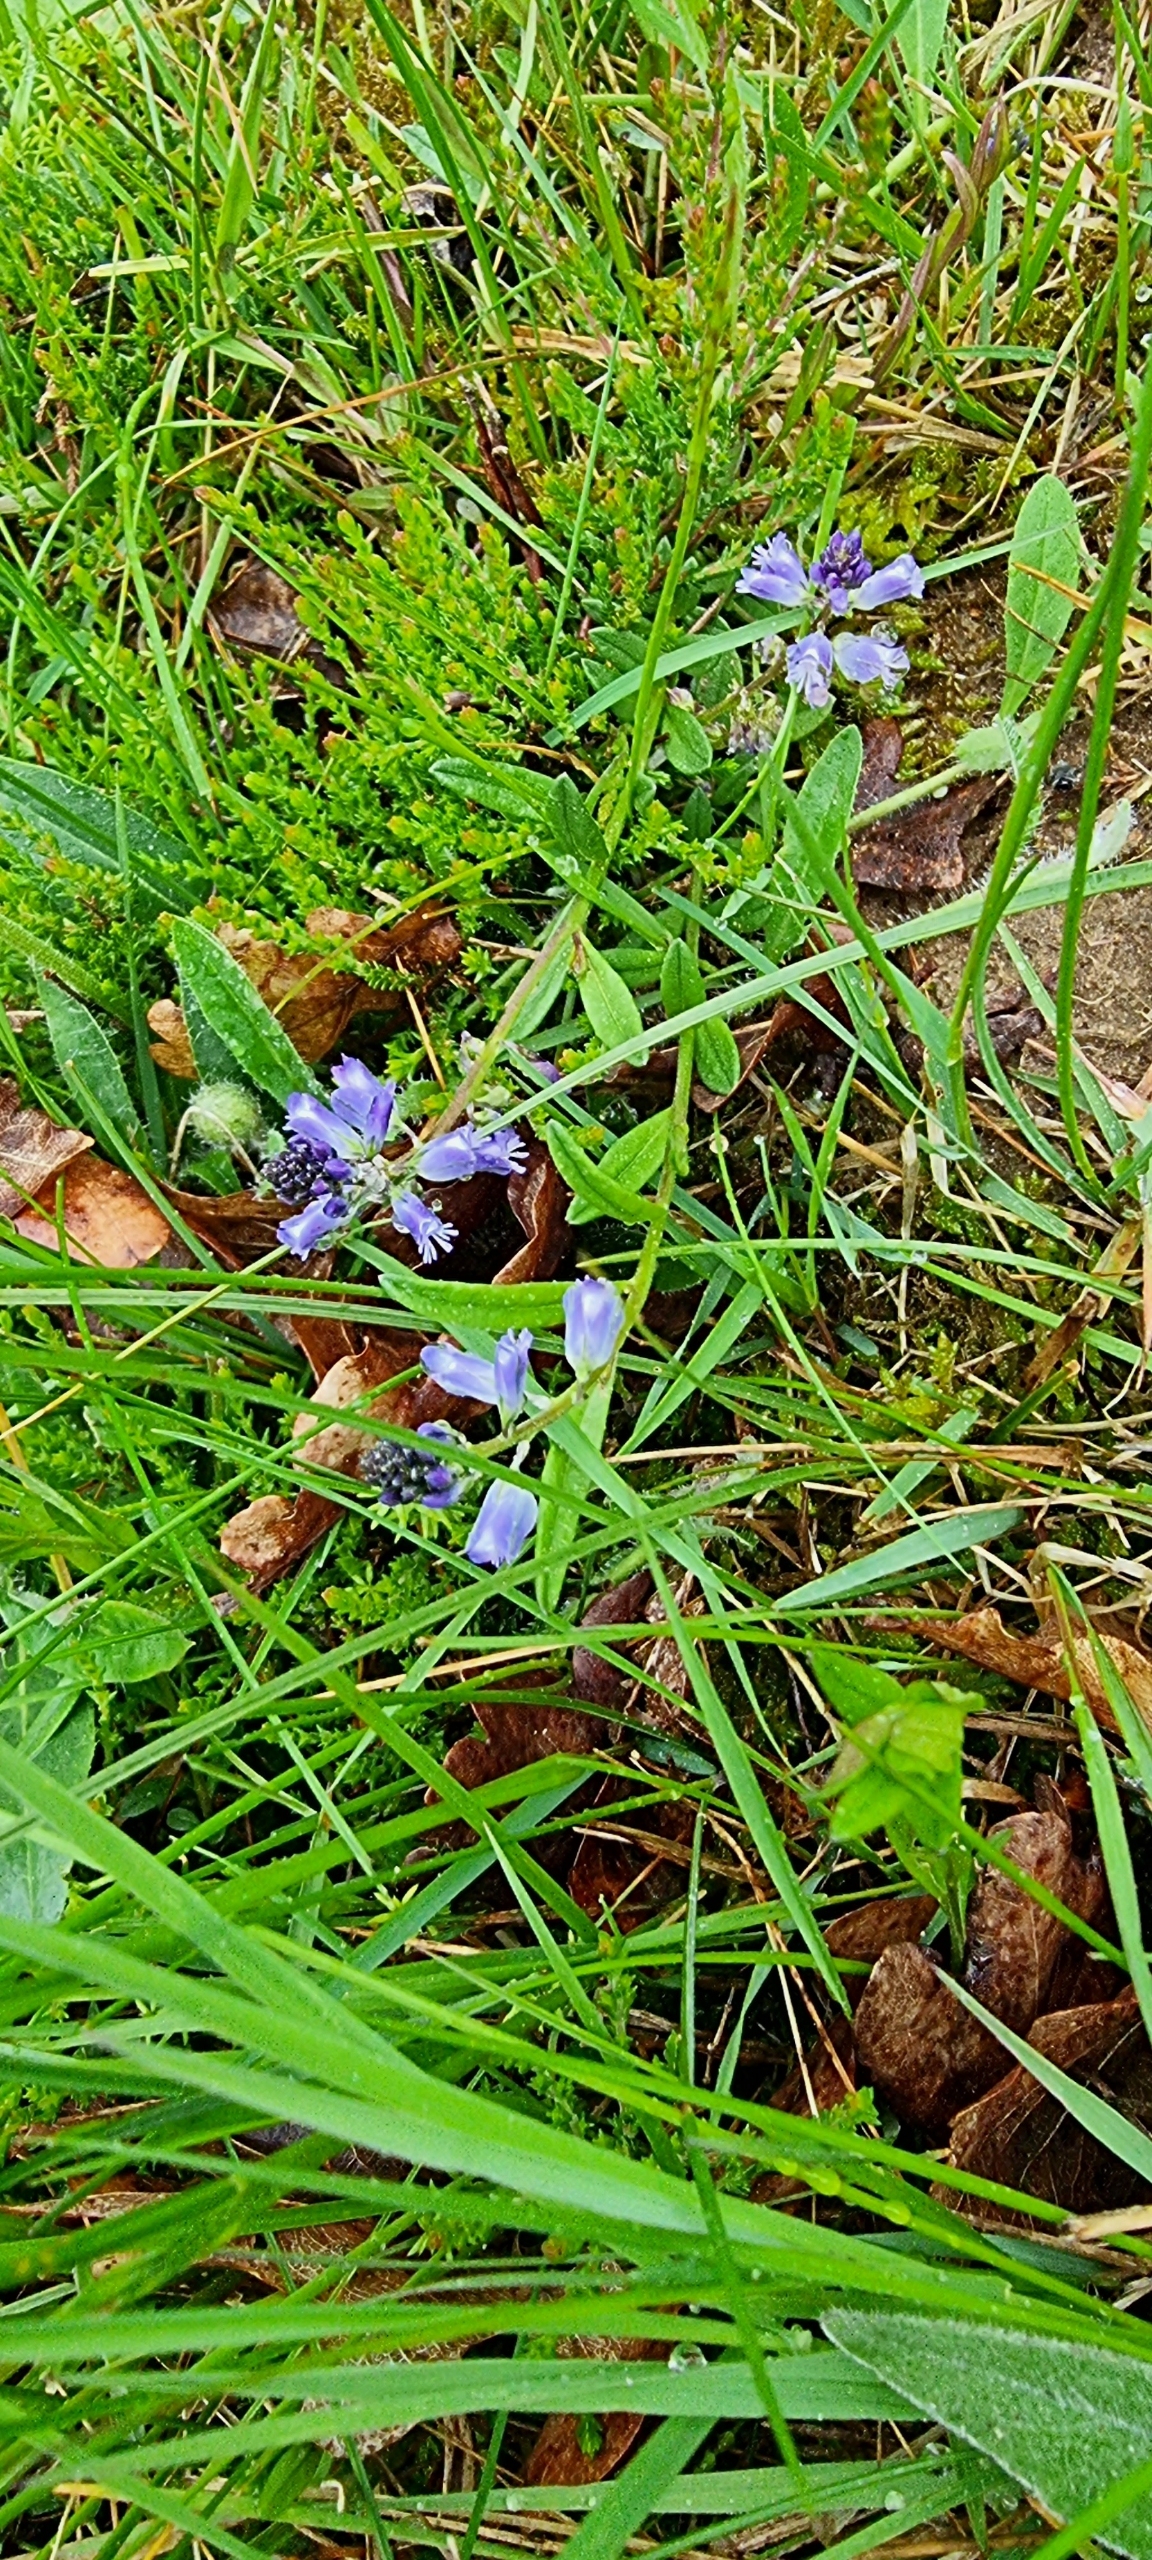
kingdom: Plantae
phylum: Tracheophyta
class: Magnoliopsida
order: Fabales
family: Polygalaceae
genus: Polygala
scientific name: Polygala vulgaris
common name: Almindelig mælkeurt
